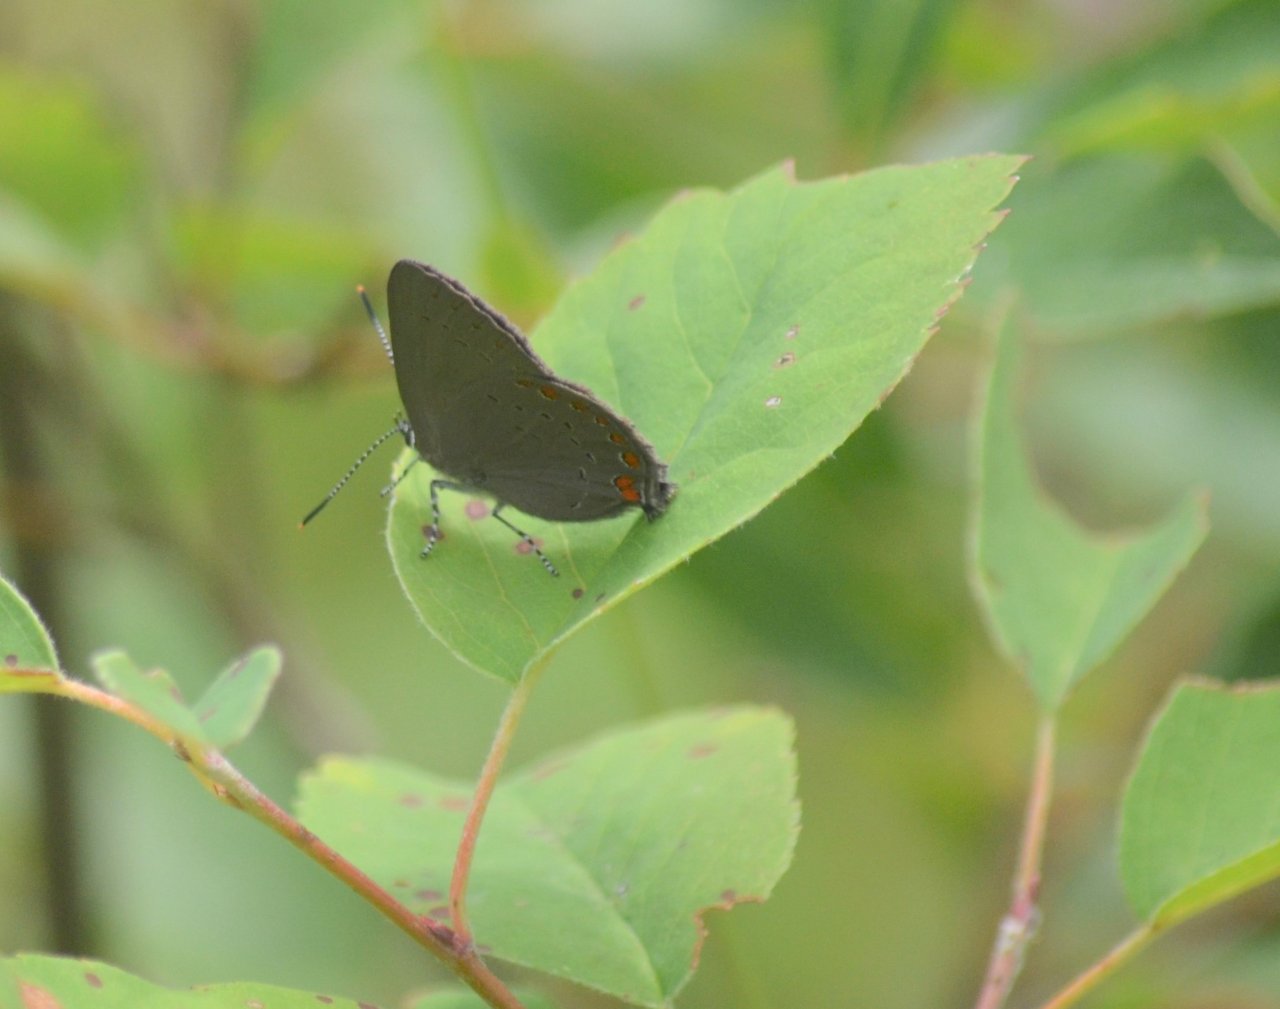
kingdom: Animalia
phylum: Arthropoda
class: Insecta
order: Lepidoptera
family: Lycaenidae
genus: Strymon
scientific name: Strymon acadica
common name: Acadian Hairstreak
